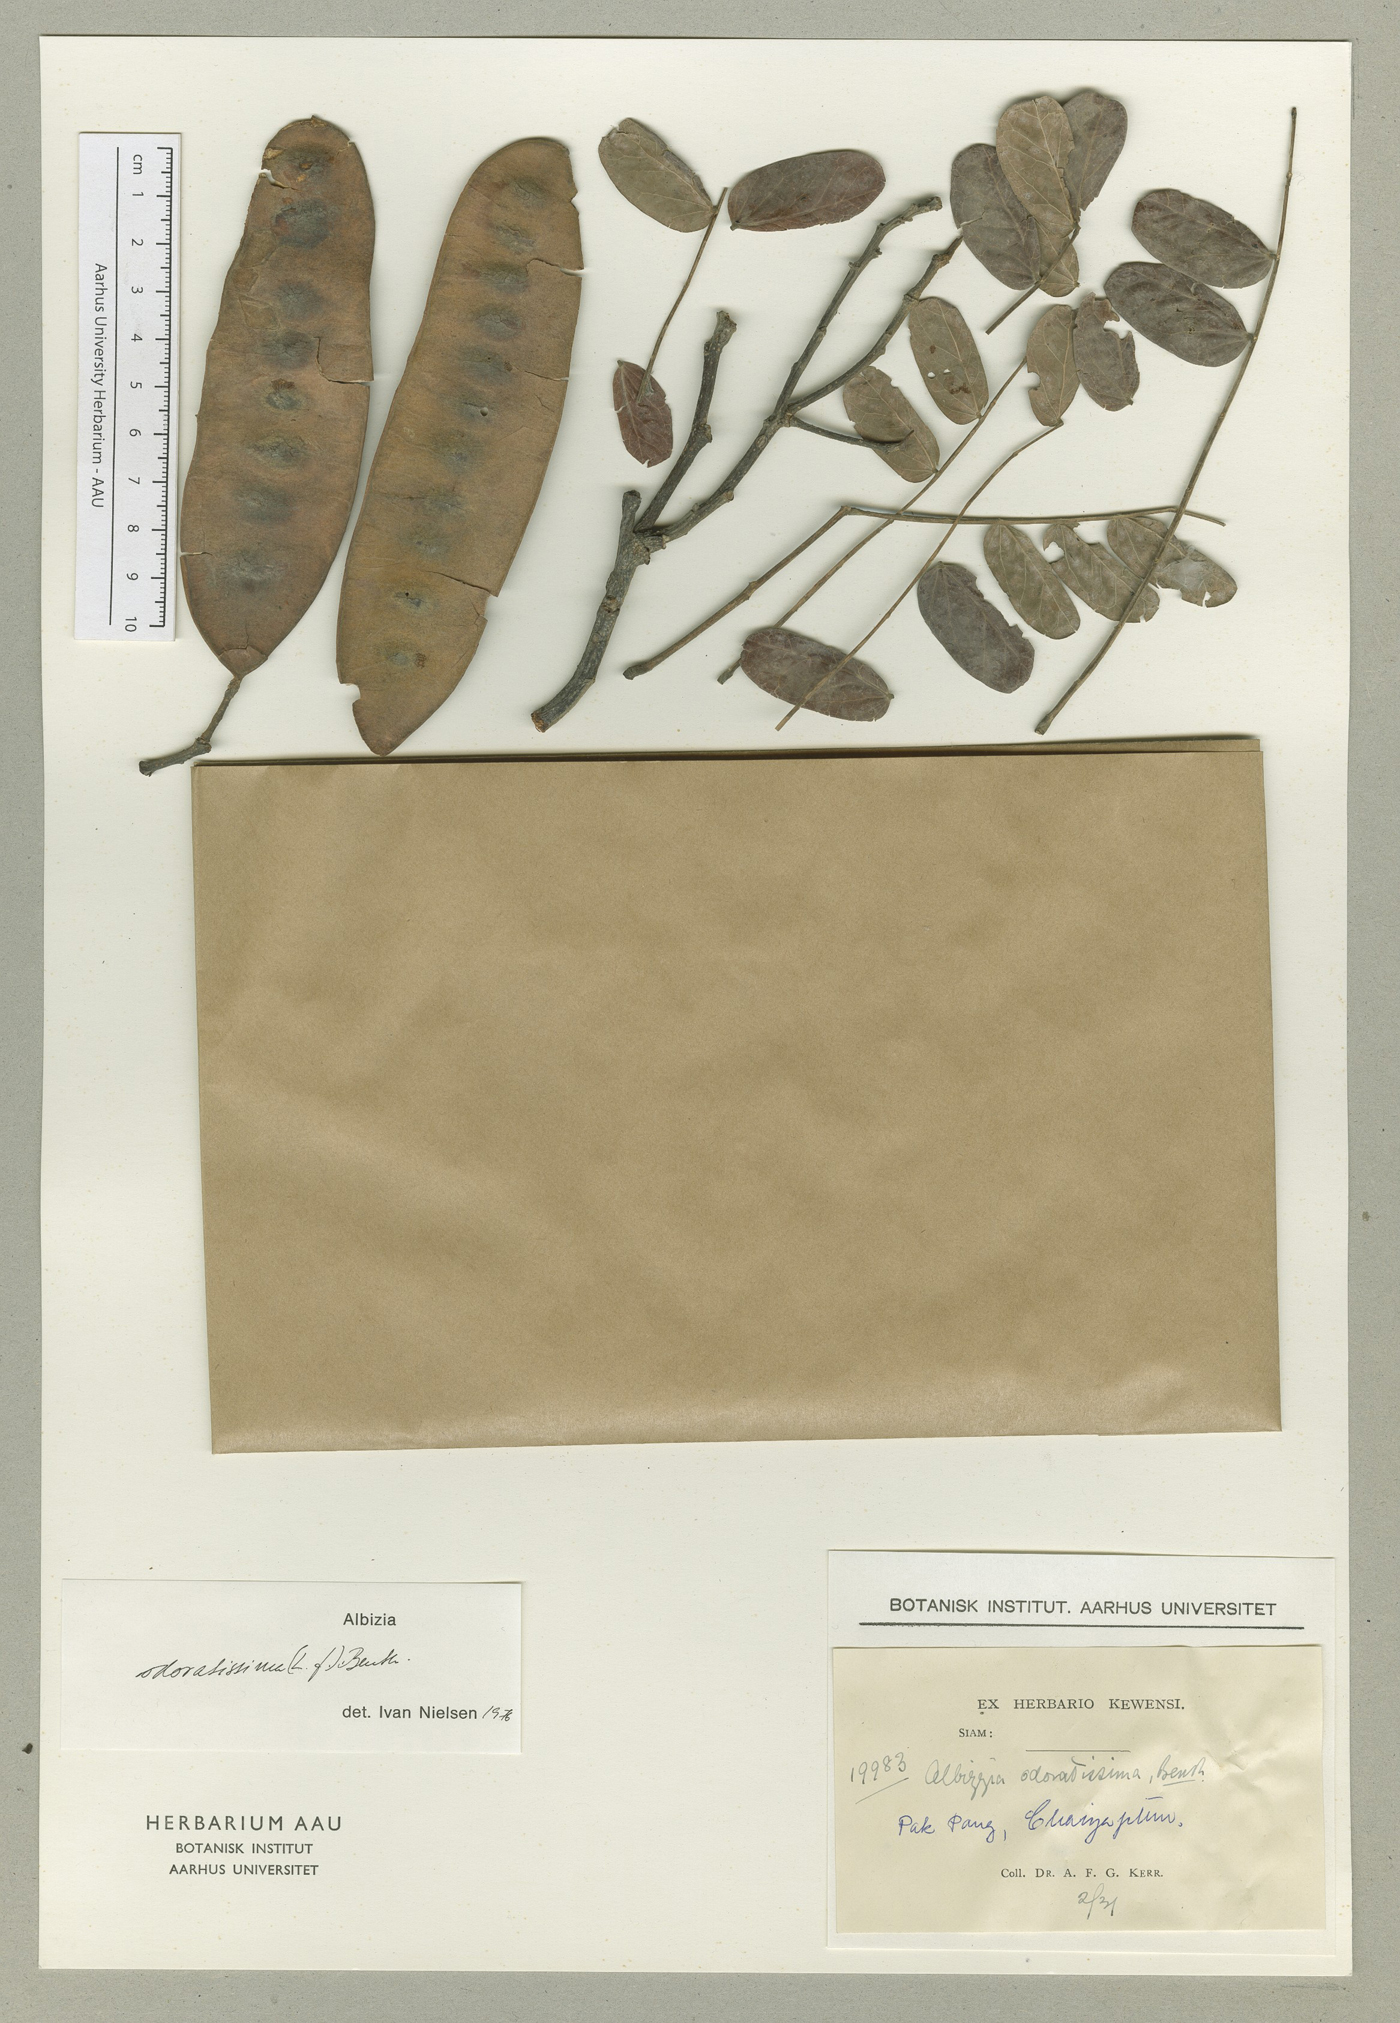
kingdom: Plantae
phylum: Tracheophyta
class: Magnoliopsida
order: Fabales
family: Fabaceae
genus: Albizia
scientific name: Albizia odoratissima
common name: Ceylon rosewood
